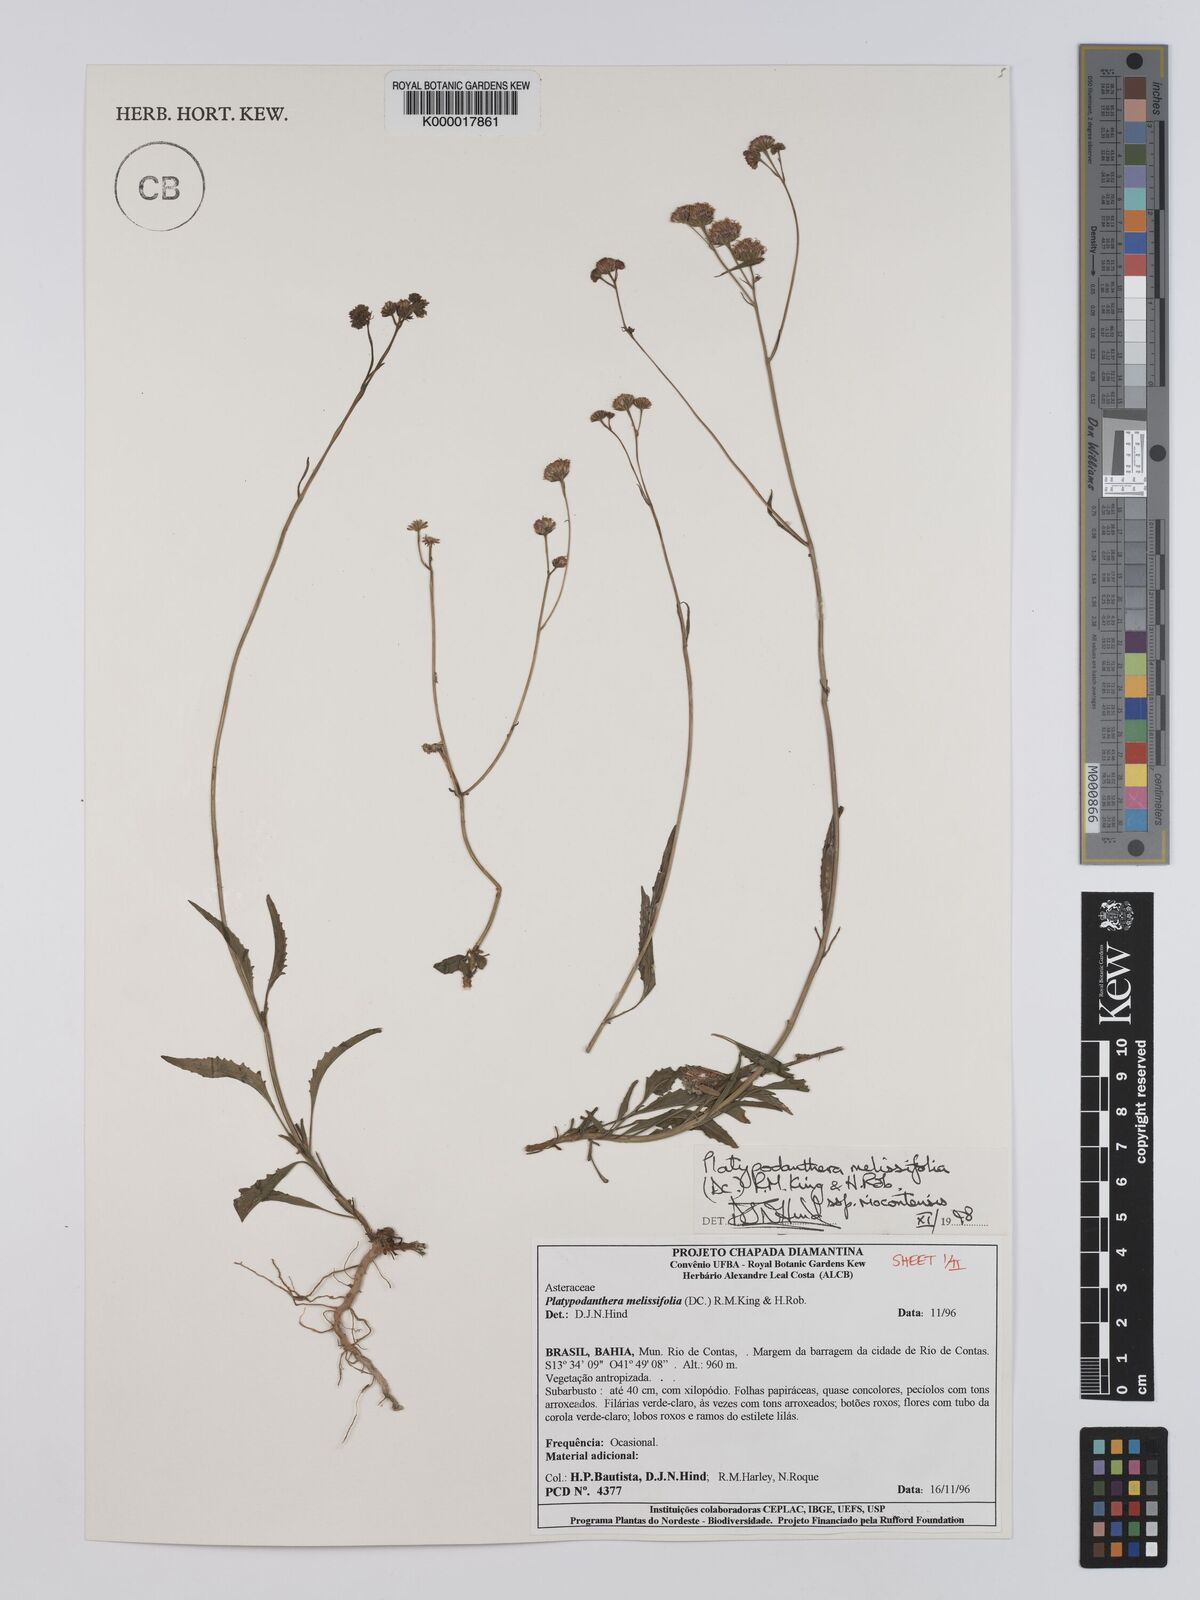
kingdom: Plantae
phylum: Tracheophyta
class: Magnoliopsida
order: Asterales
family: Asteraceae
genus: Platypodanthera
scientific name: Platypodanthera melissifolia
